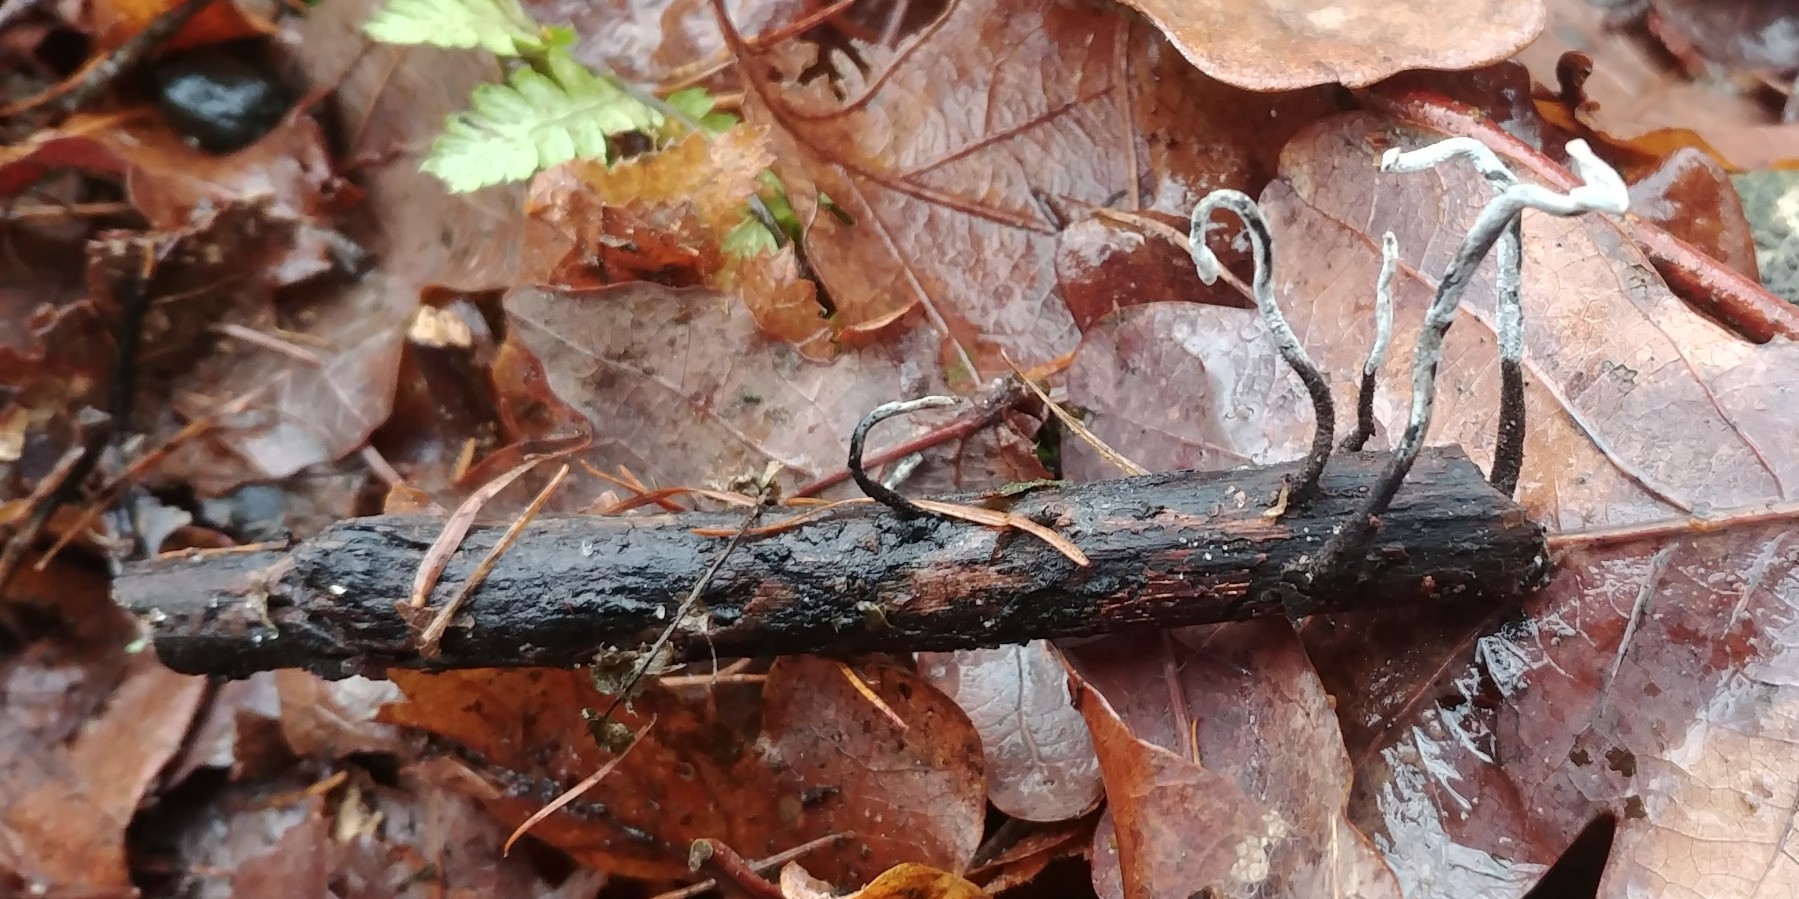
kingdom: Fungi
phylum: Ascomycota
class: Sordariomycetes
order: Xylariales
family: Xylariaceae
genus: Xylaria
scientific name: Xylaria hypoxylon
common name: grenet stødsvamp
